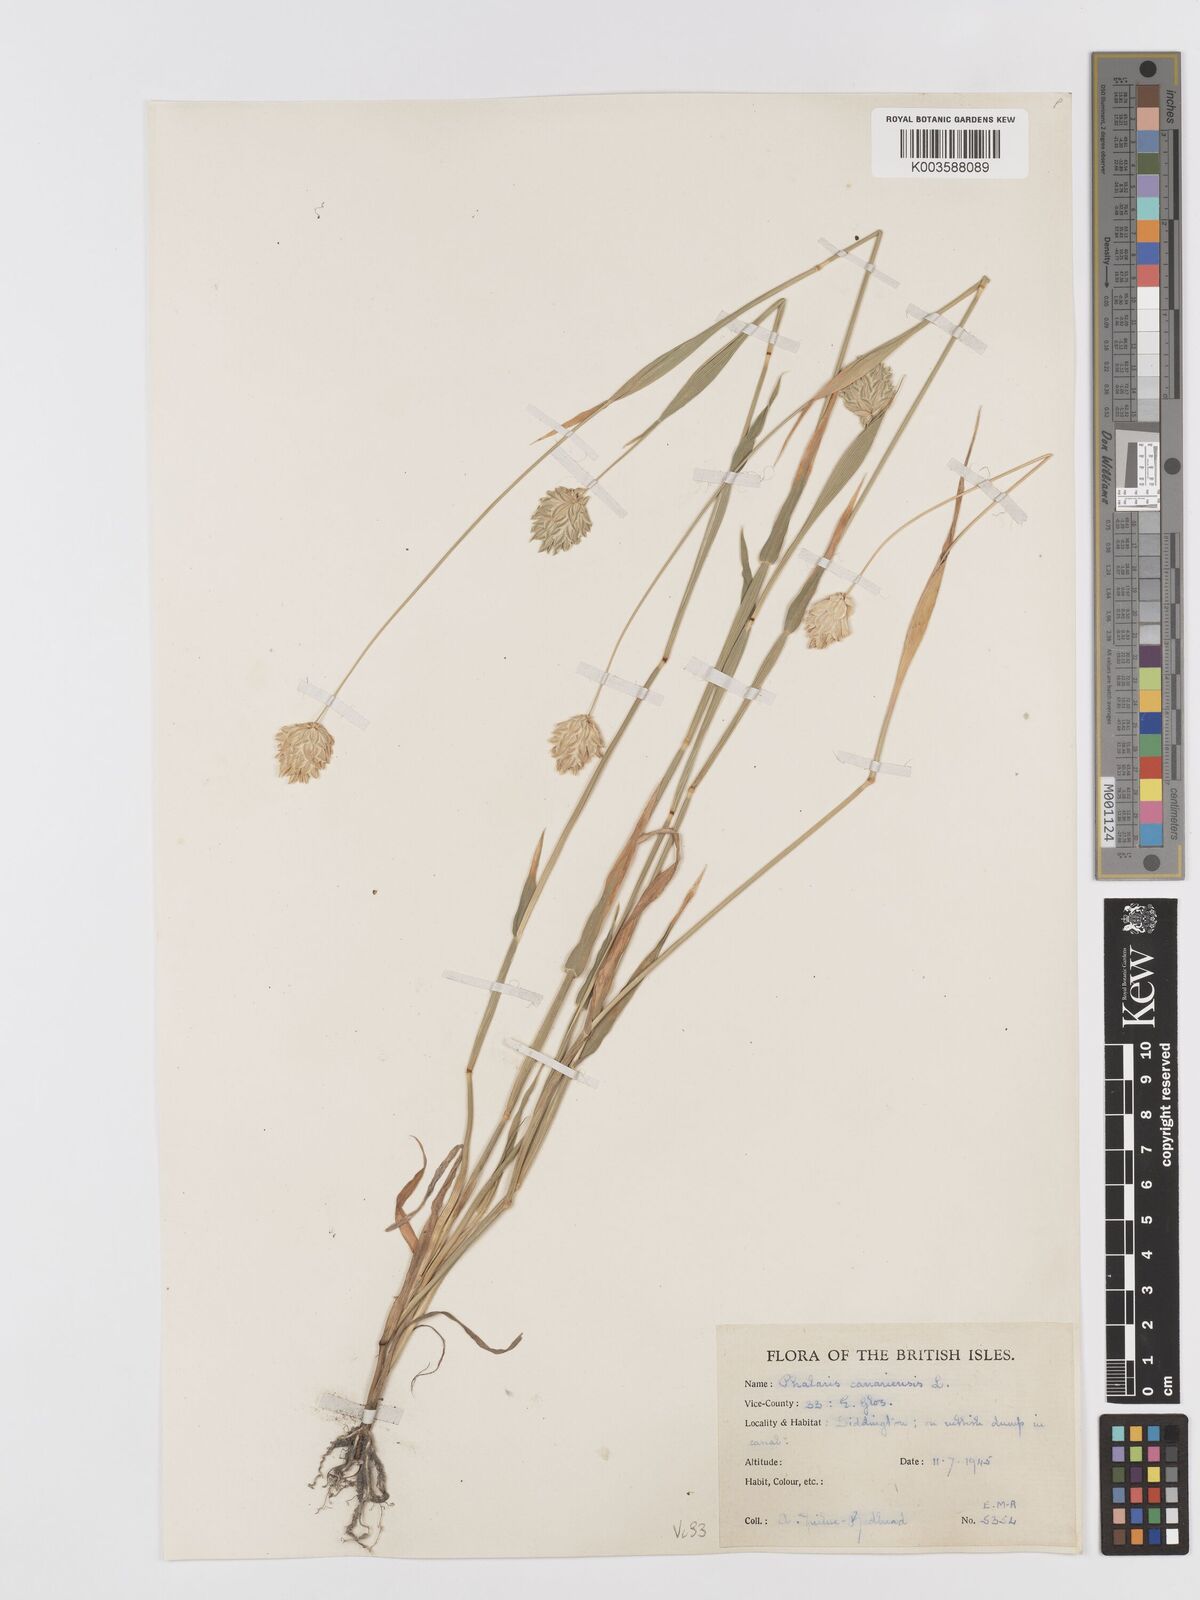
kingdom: Plantae
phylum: Tracheophyta
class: Liliopsida
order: Poales
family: Poaceae
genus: Phalaris
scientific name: Phalaris canariensis
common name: Annual canarygrass
